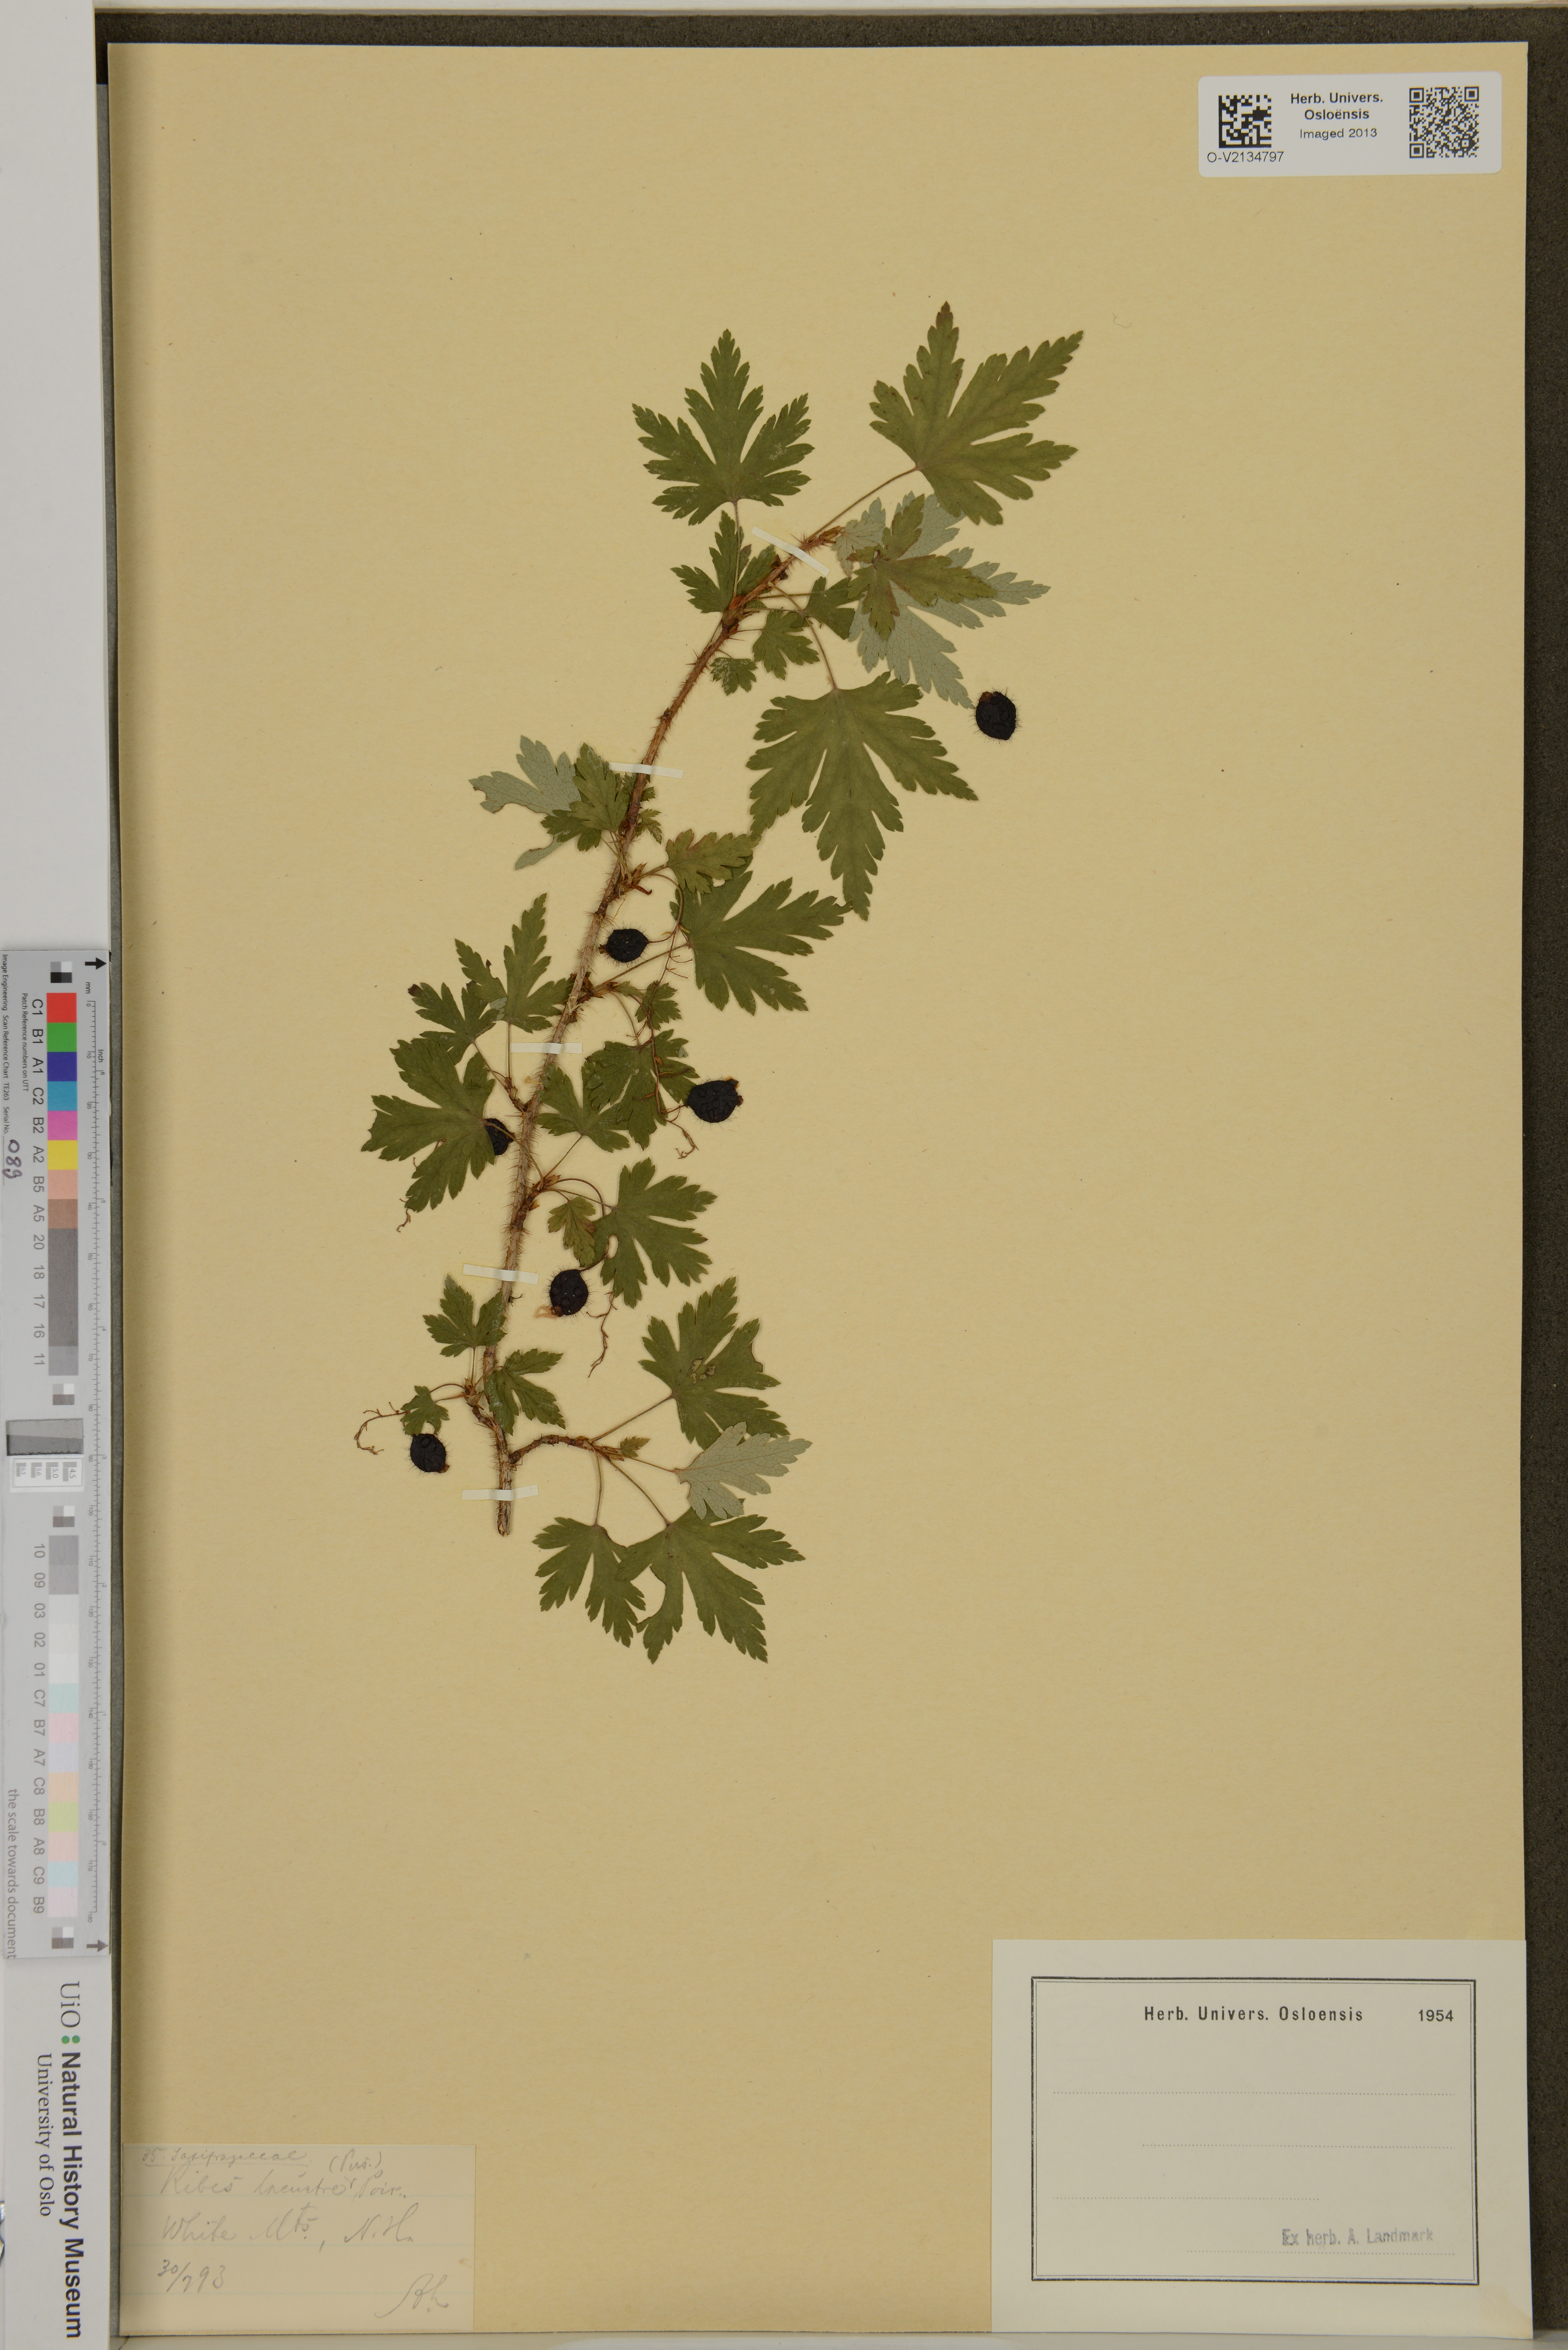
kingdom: Plantae
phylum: Tracheophyta
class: Magnoliopsida
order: Saxifragales
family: Grossulariaceae
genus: Ribes
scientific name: Ribes lacustre
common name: Black gooseberry
